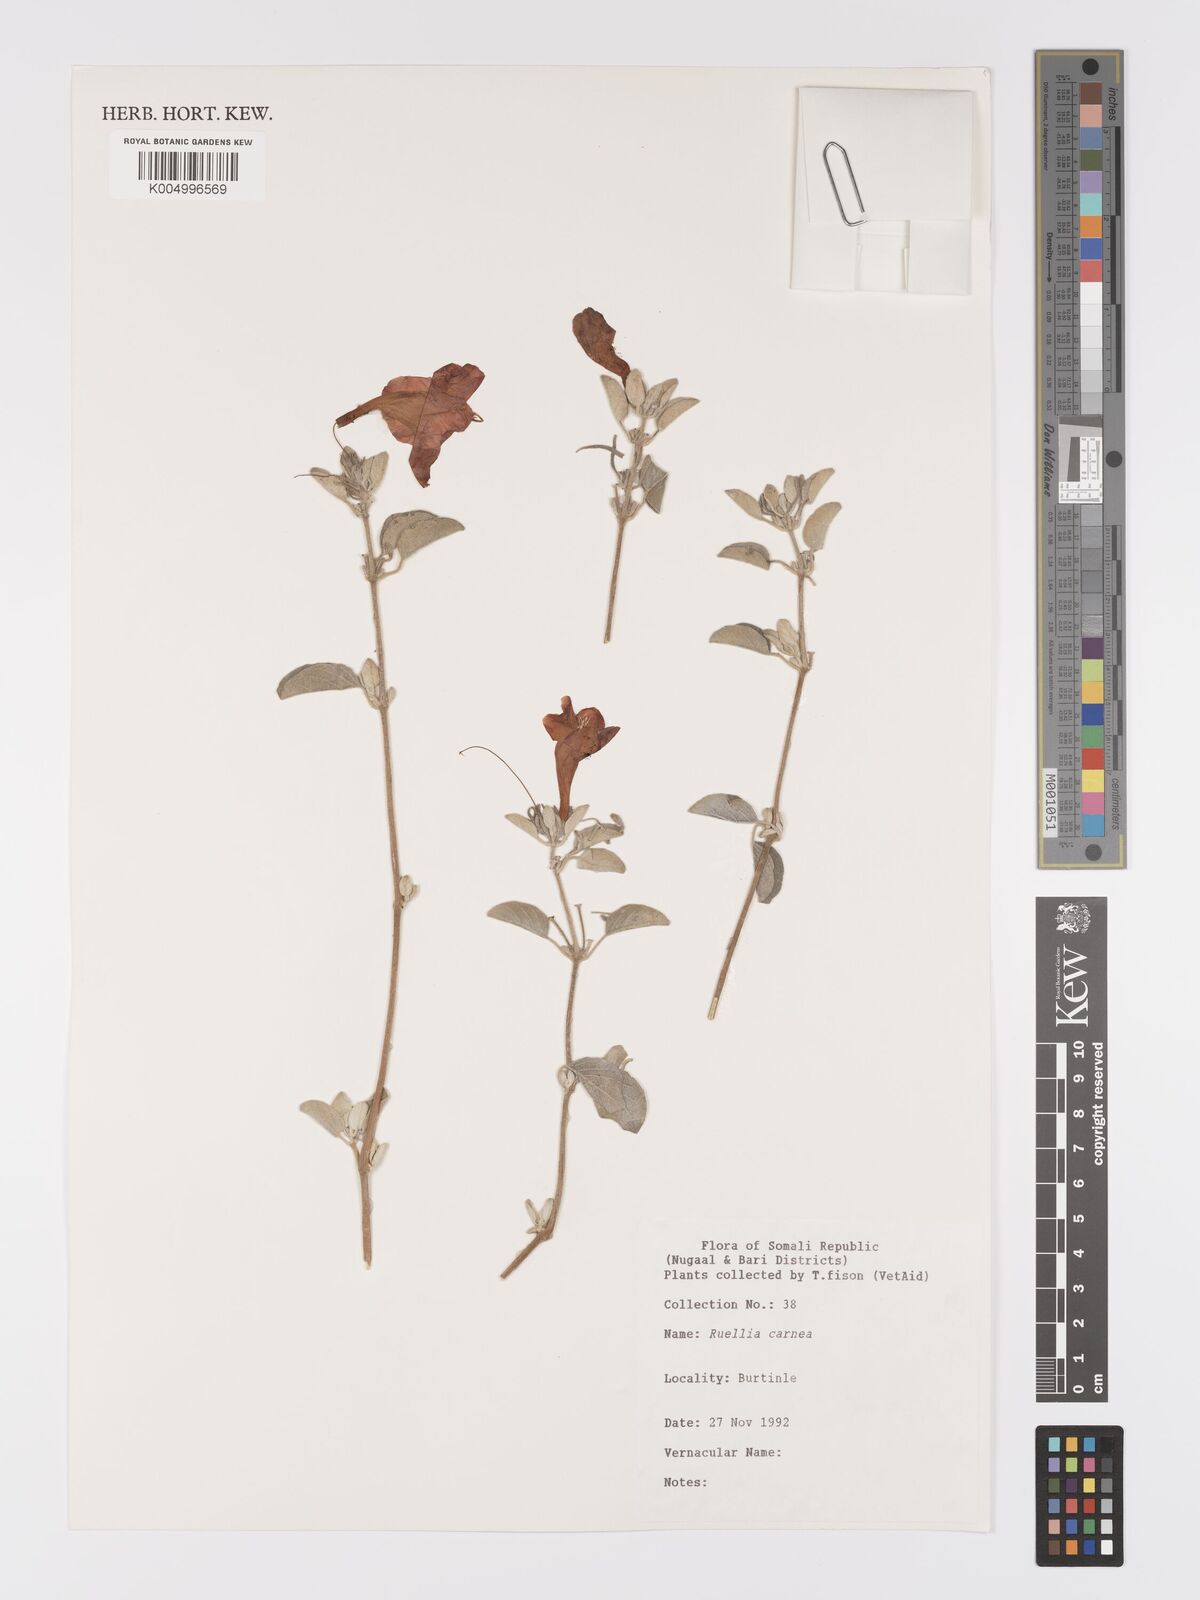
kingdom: Plantae
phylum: Tracheophyta
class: Magnoliopsida
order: Lamiales
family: Acanthaceae
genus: Ruellia
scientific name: Ruellia carnea
